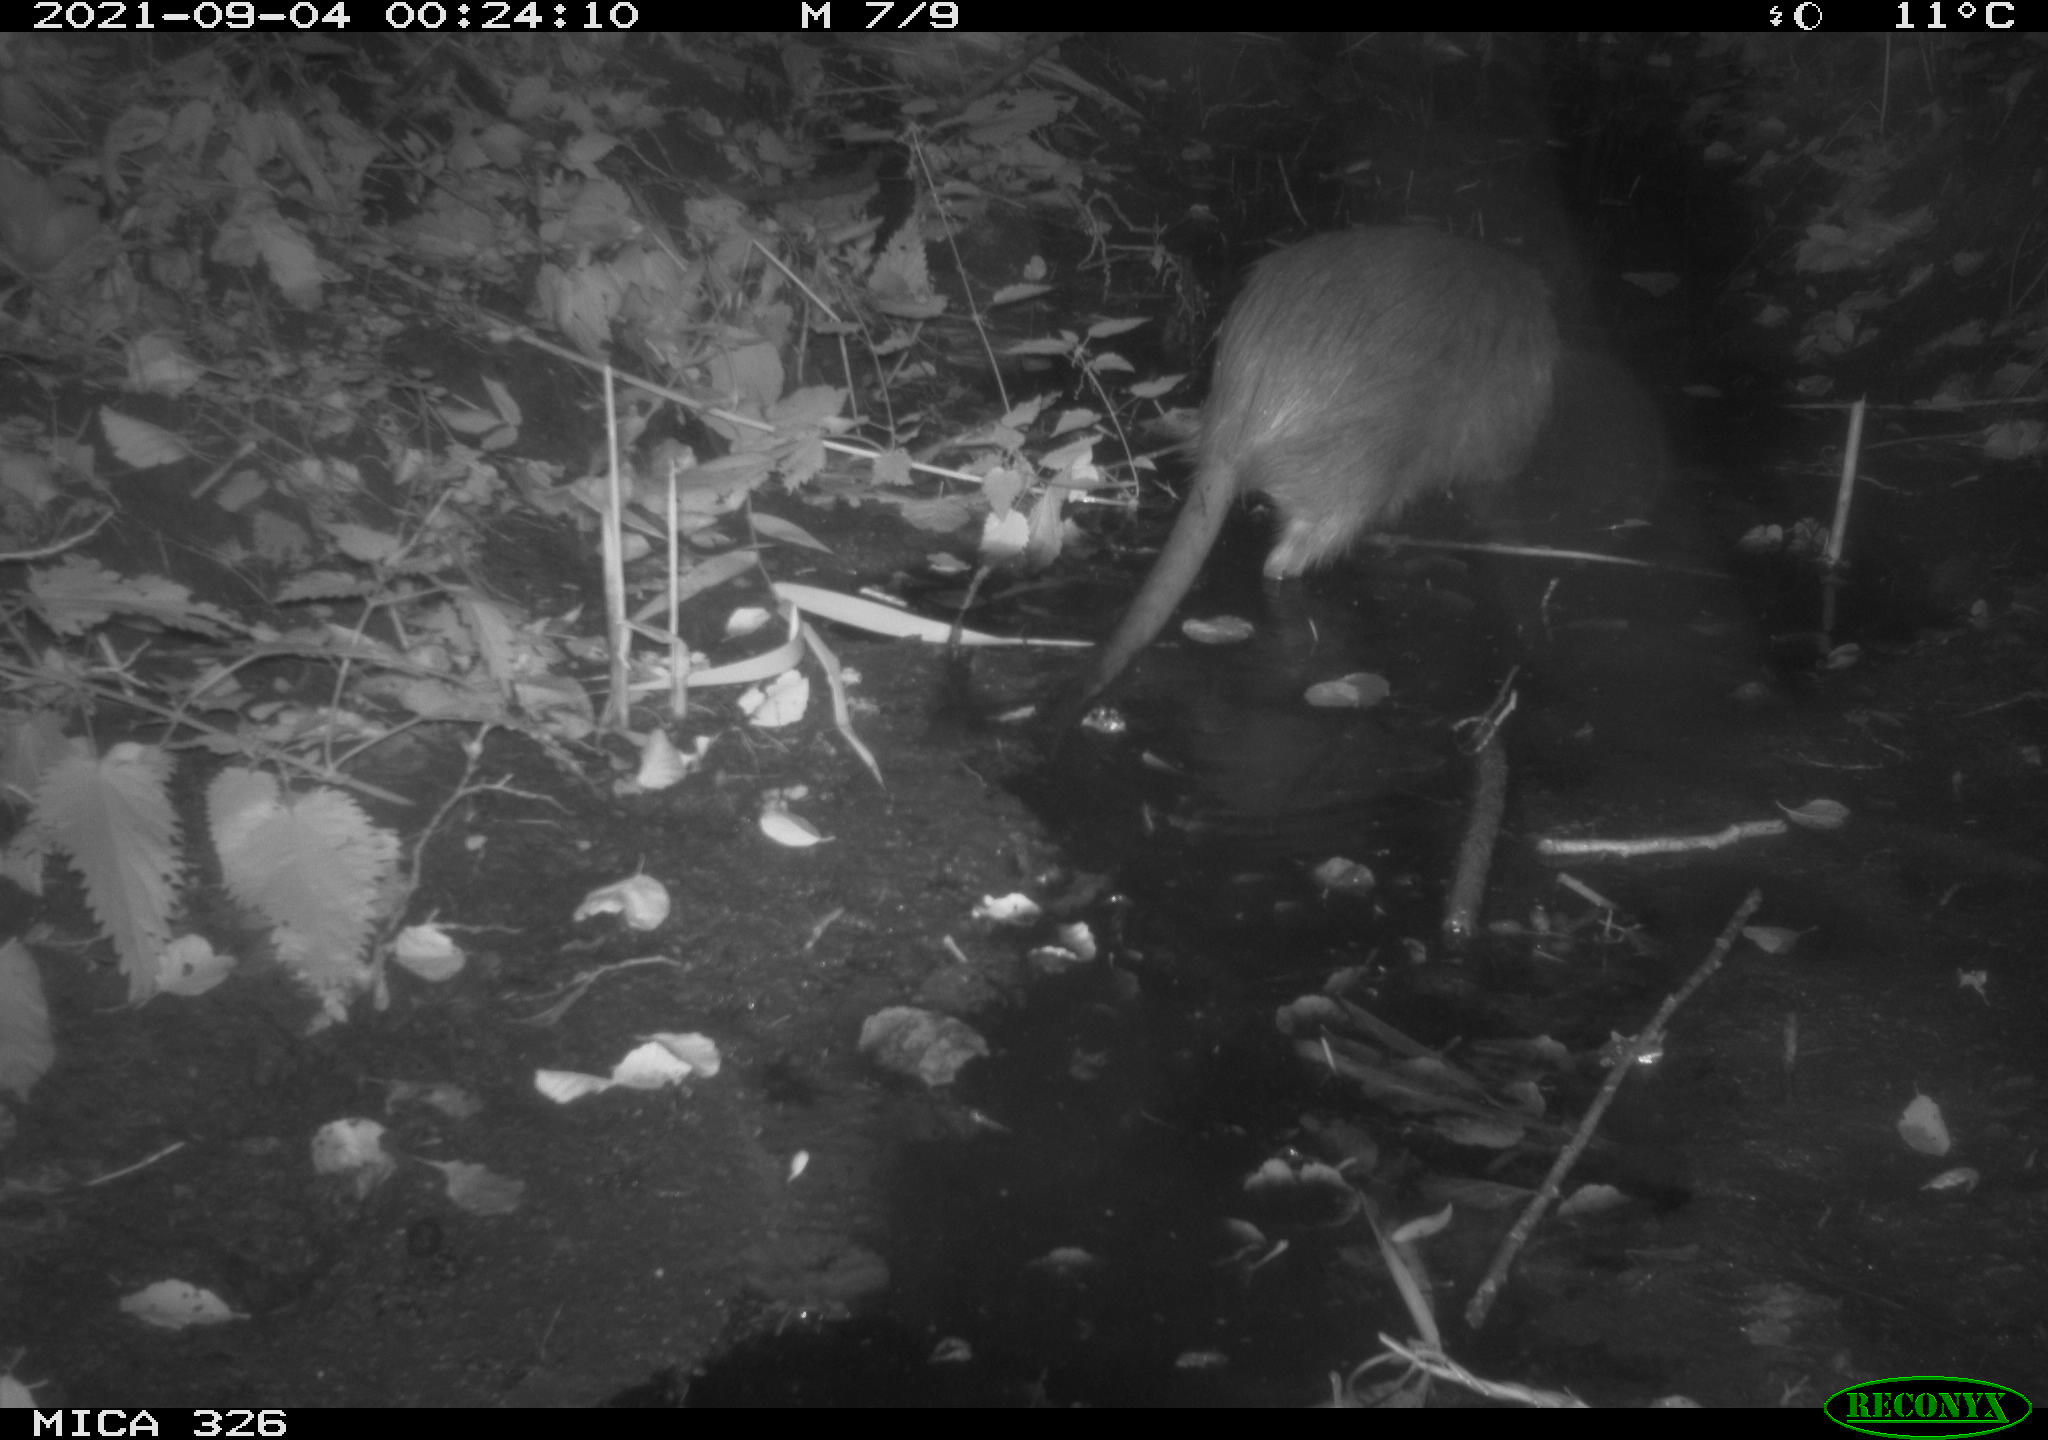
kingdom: Animalia
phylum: Chordata
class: Mammalia
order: Rodentia
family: Myocastoridae
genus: Myocastor
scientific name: Myocastor coypus
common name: Coypu
